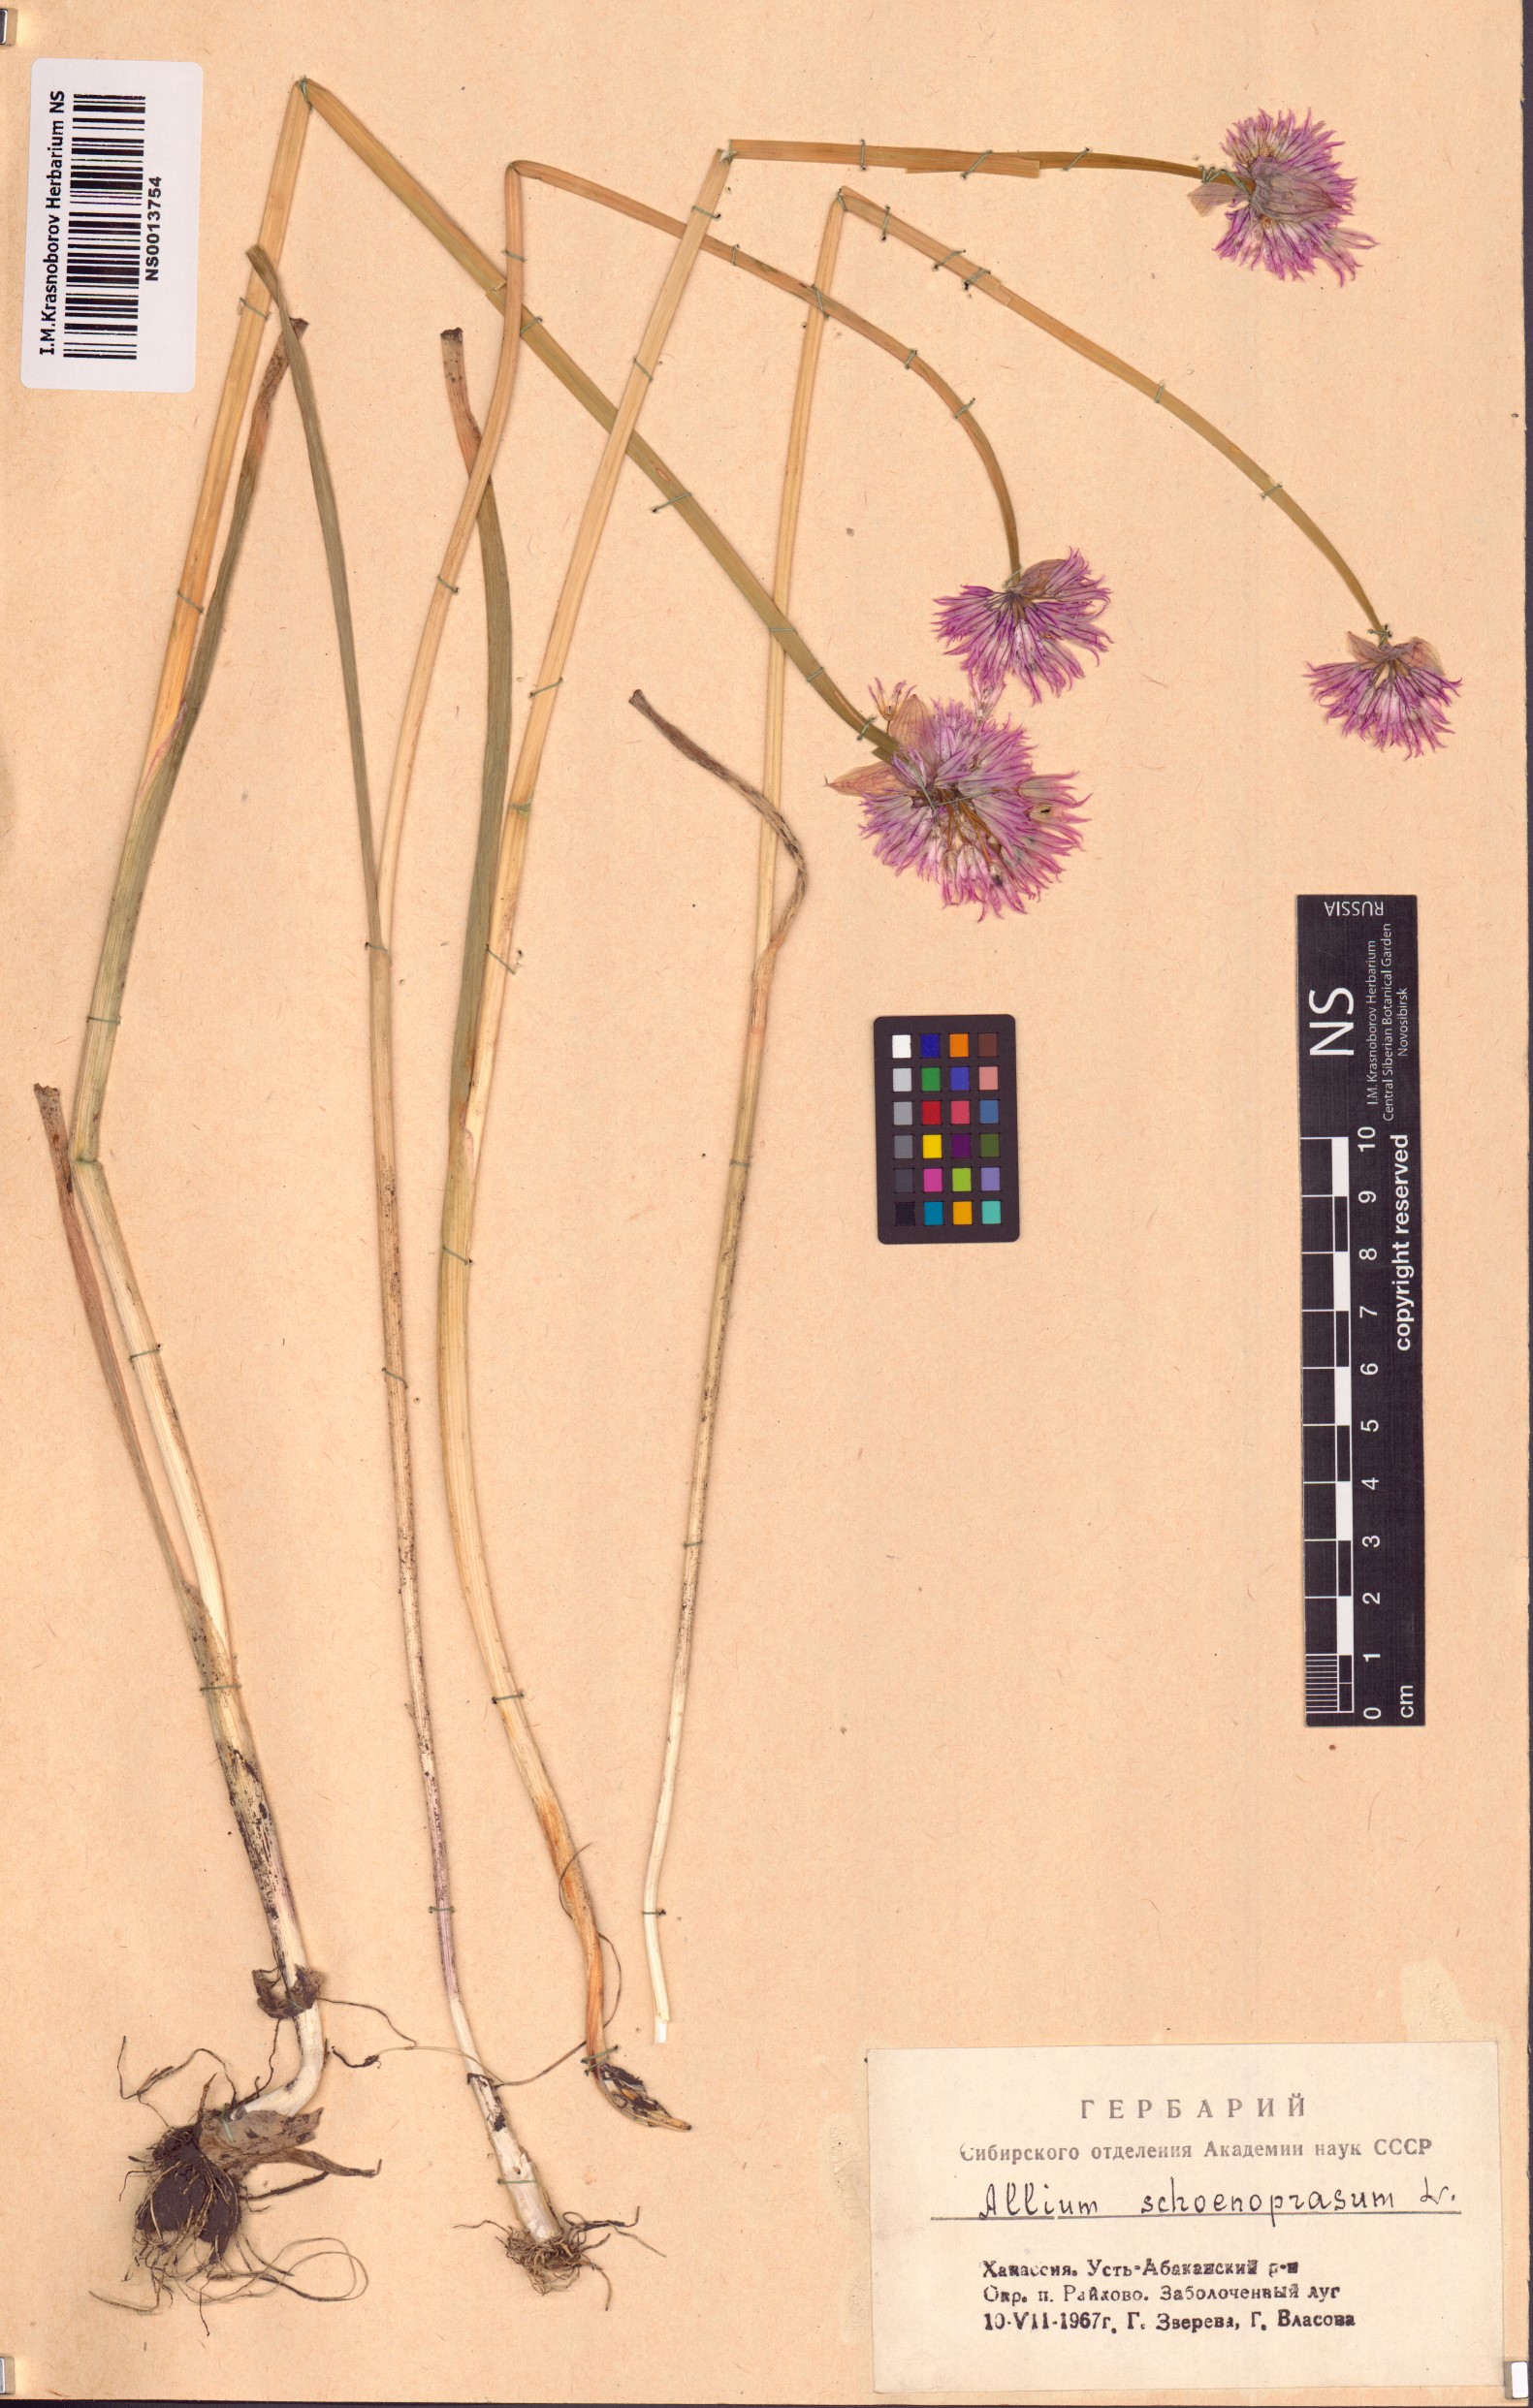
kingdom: Plantae
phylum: Tracheophyta
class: Liliopsida
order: Asparagales
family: Amaryllidaceae
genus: Allium
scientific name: Allium schoenoprasum
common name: Chives
